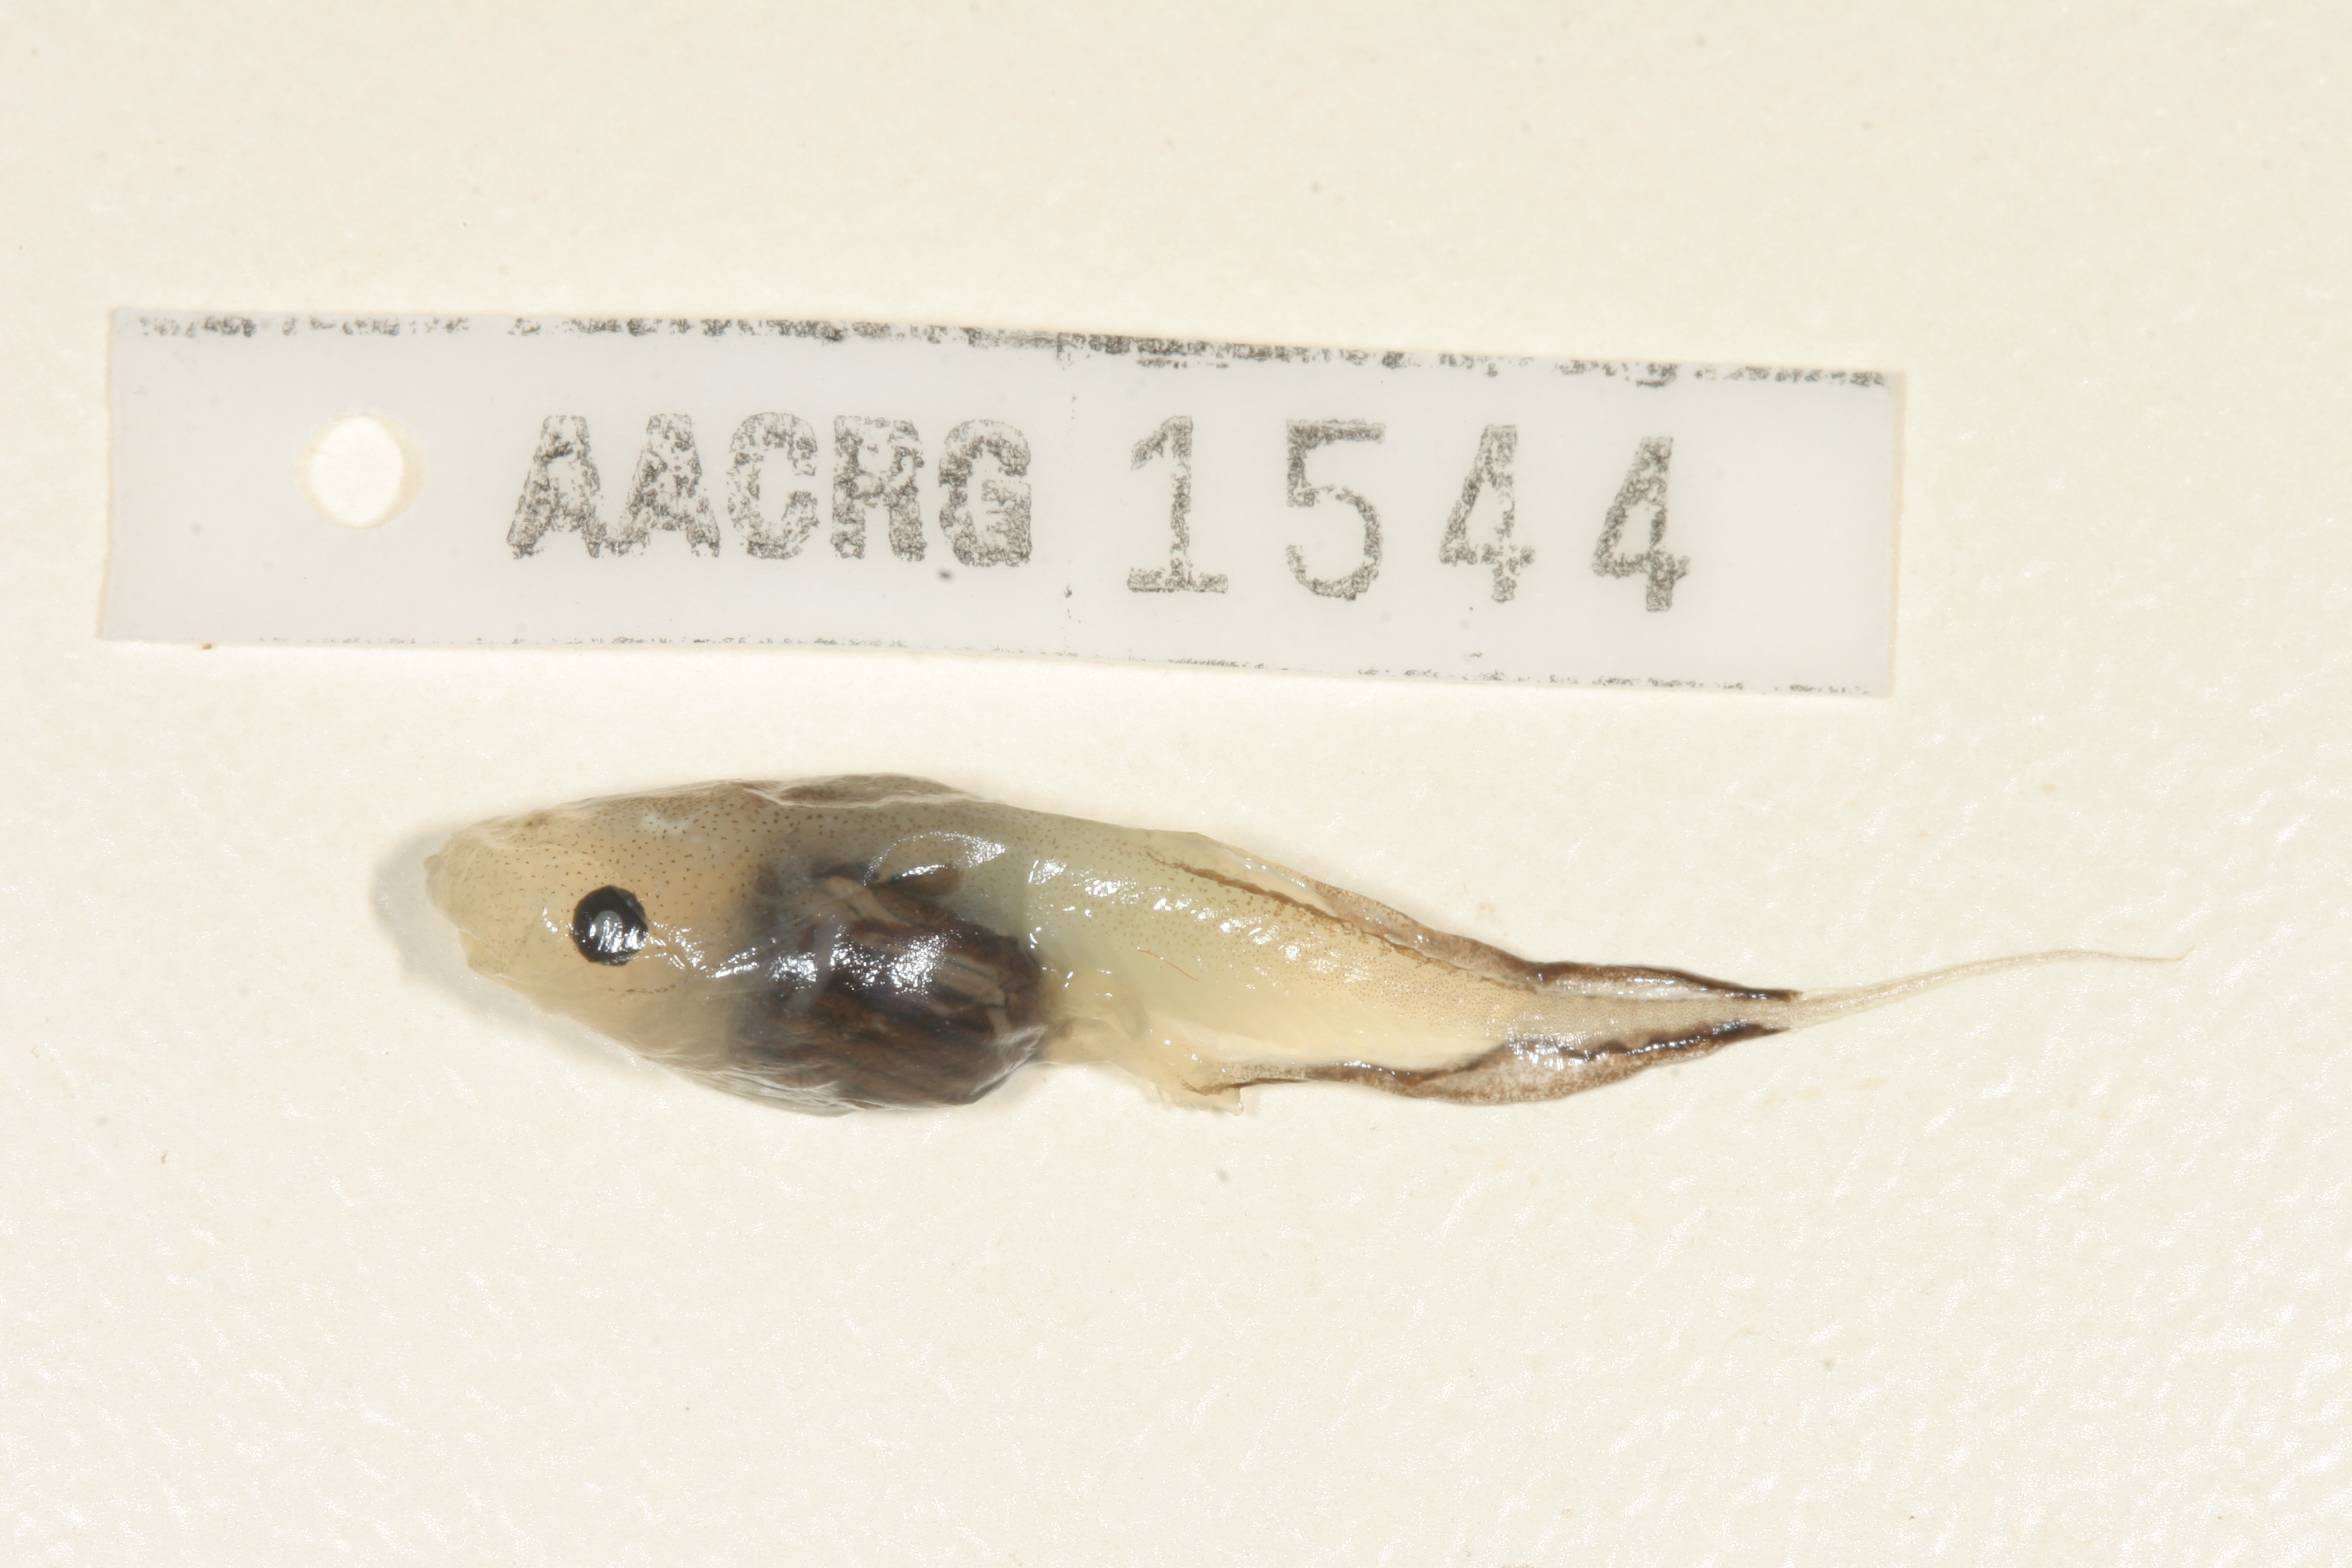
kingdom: Animalia
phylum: Chordata
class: Amphibia
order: Anura
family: Microhylidae
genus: Phrynomantis
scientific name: Phrynomantis bifasciatus
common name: Banded rubber frog
